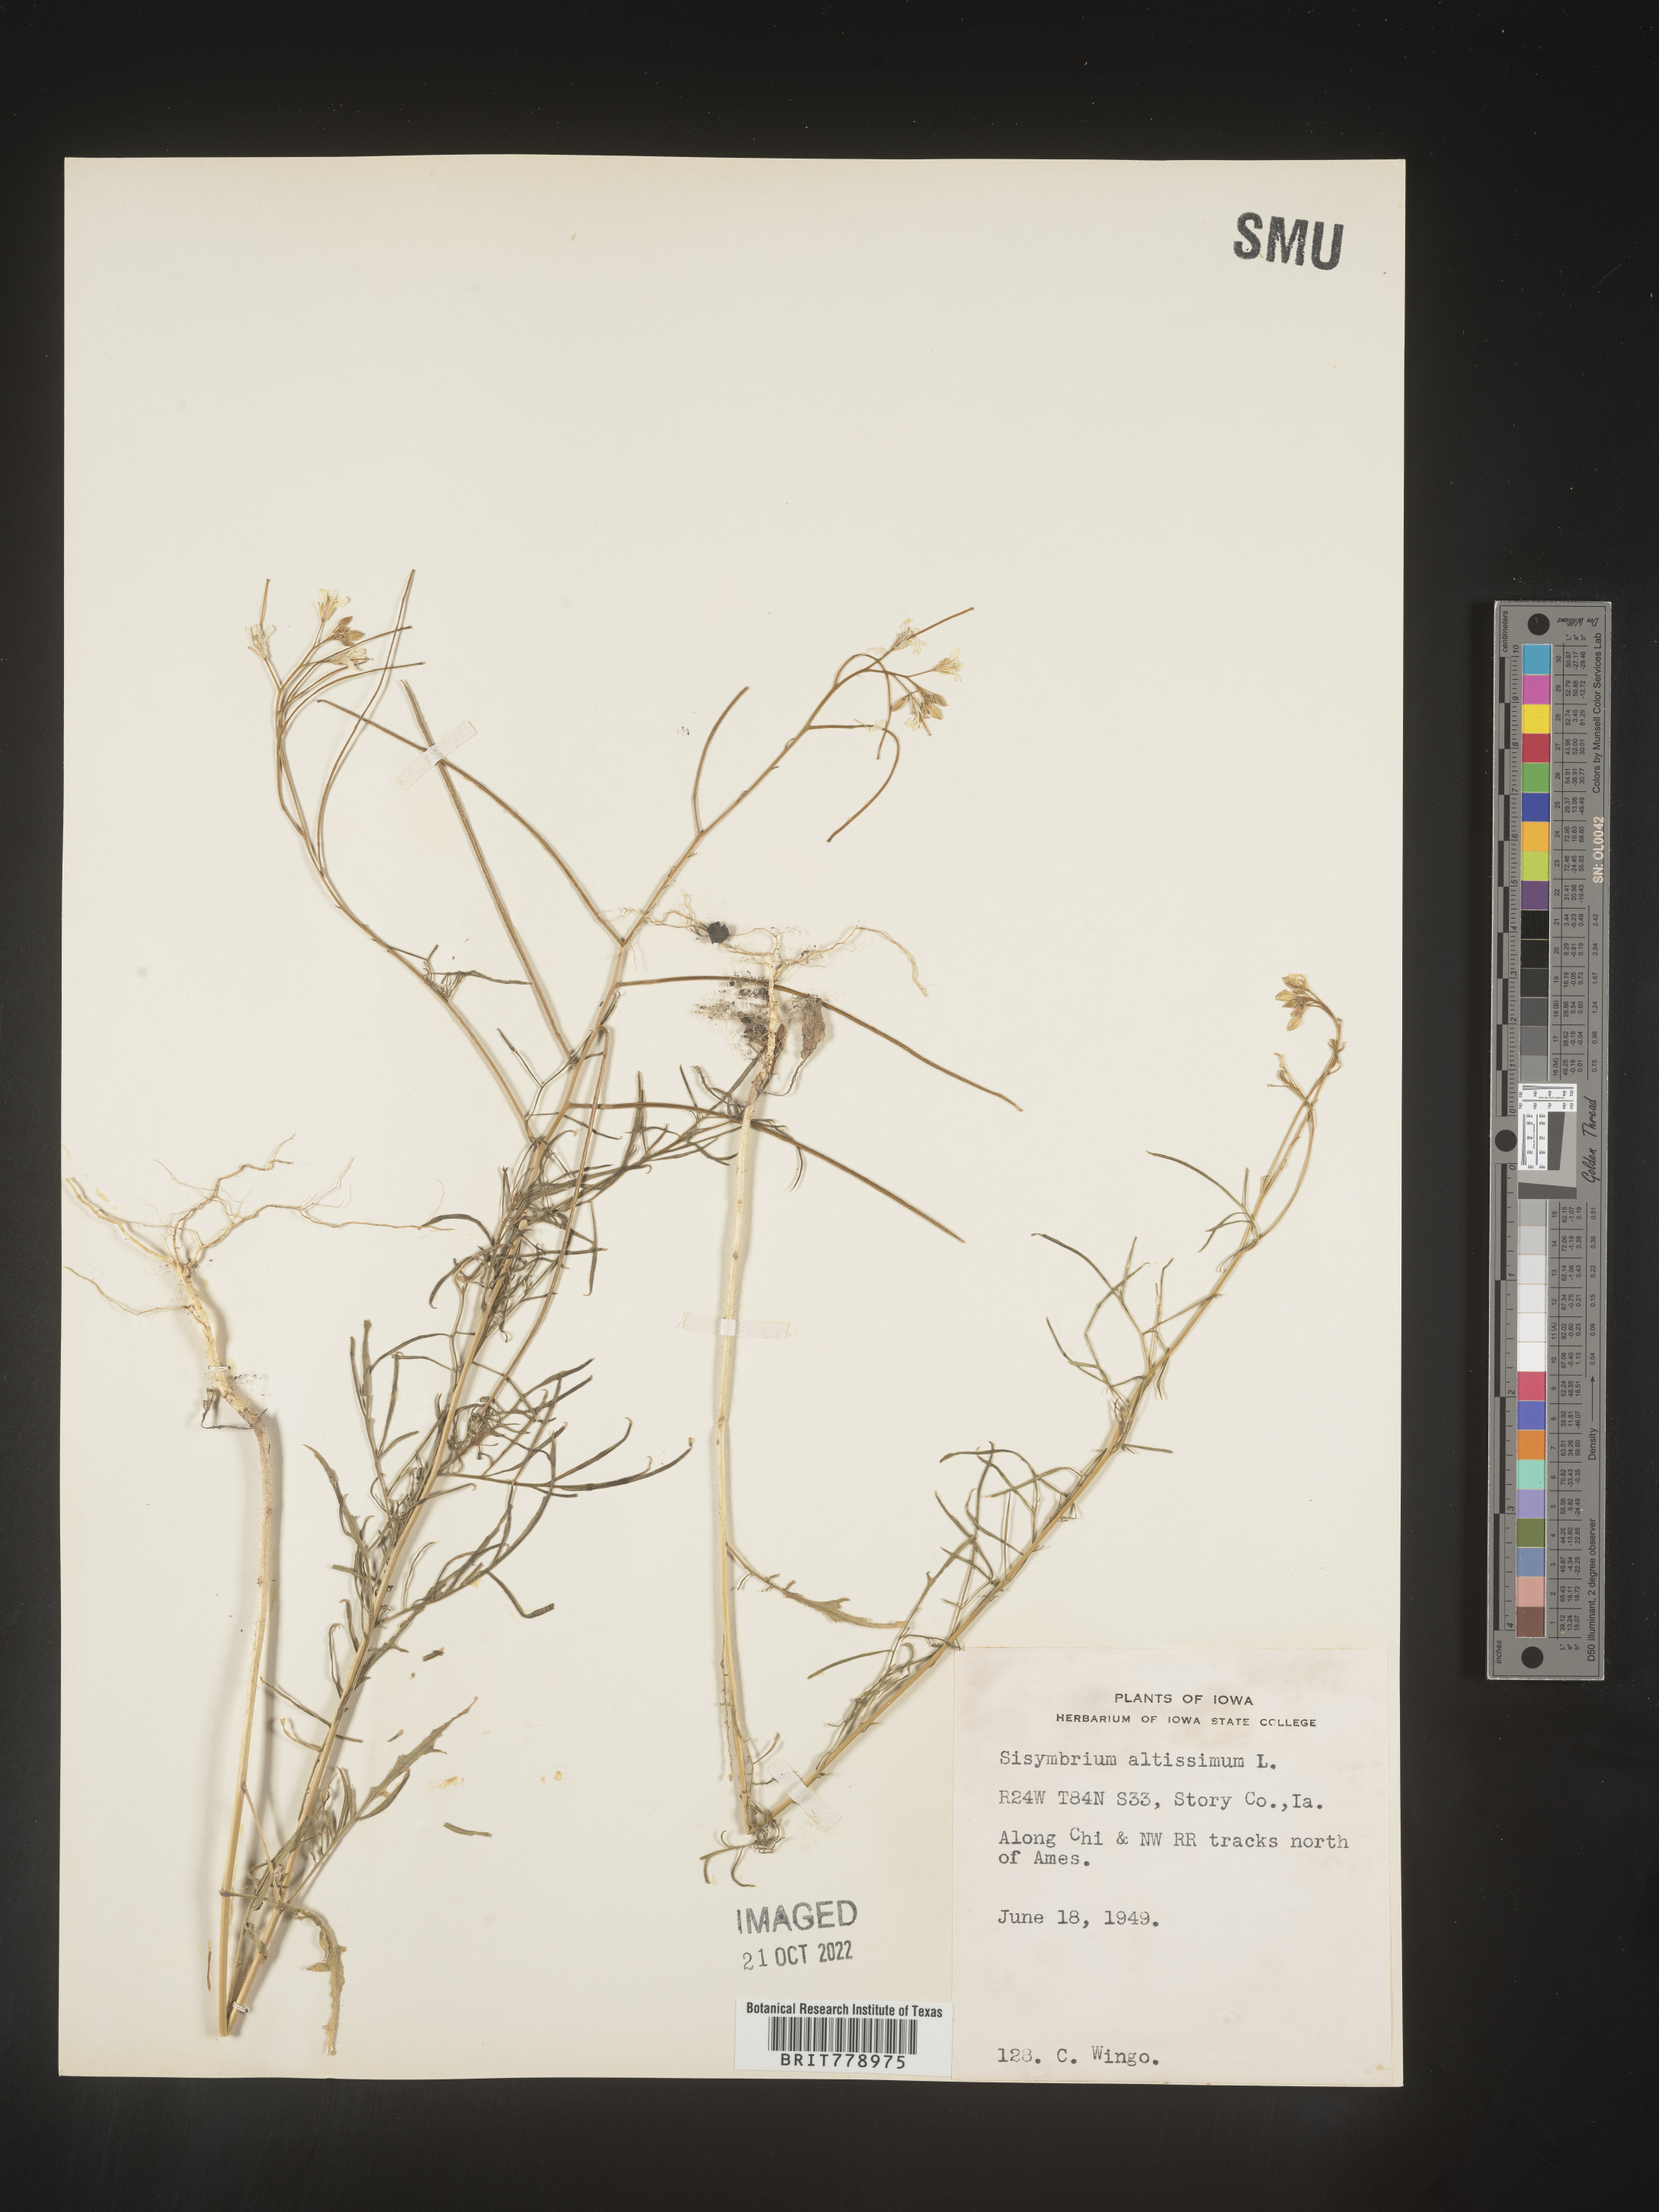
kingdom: Plantae
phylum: Tracheophyta
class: Magnoliopsida
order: Brassicales
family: Brassicaceae
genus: Sisymbrium
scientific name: Sisymbrium altissimum
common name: Tall rocket
